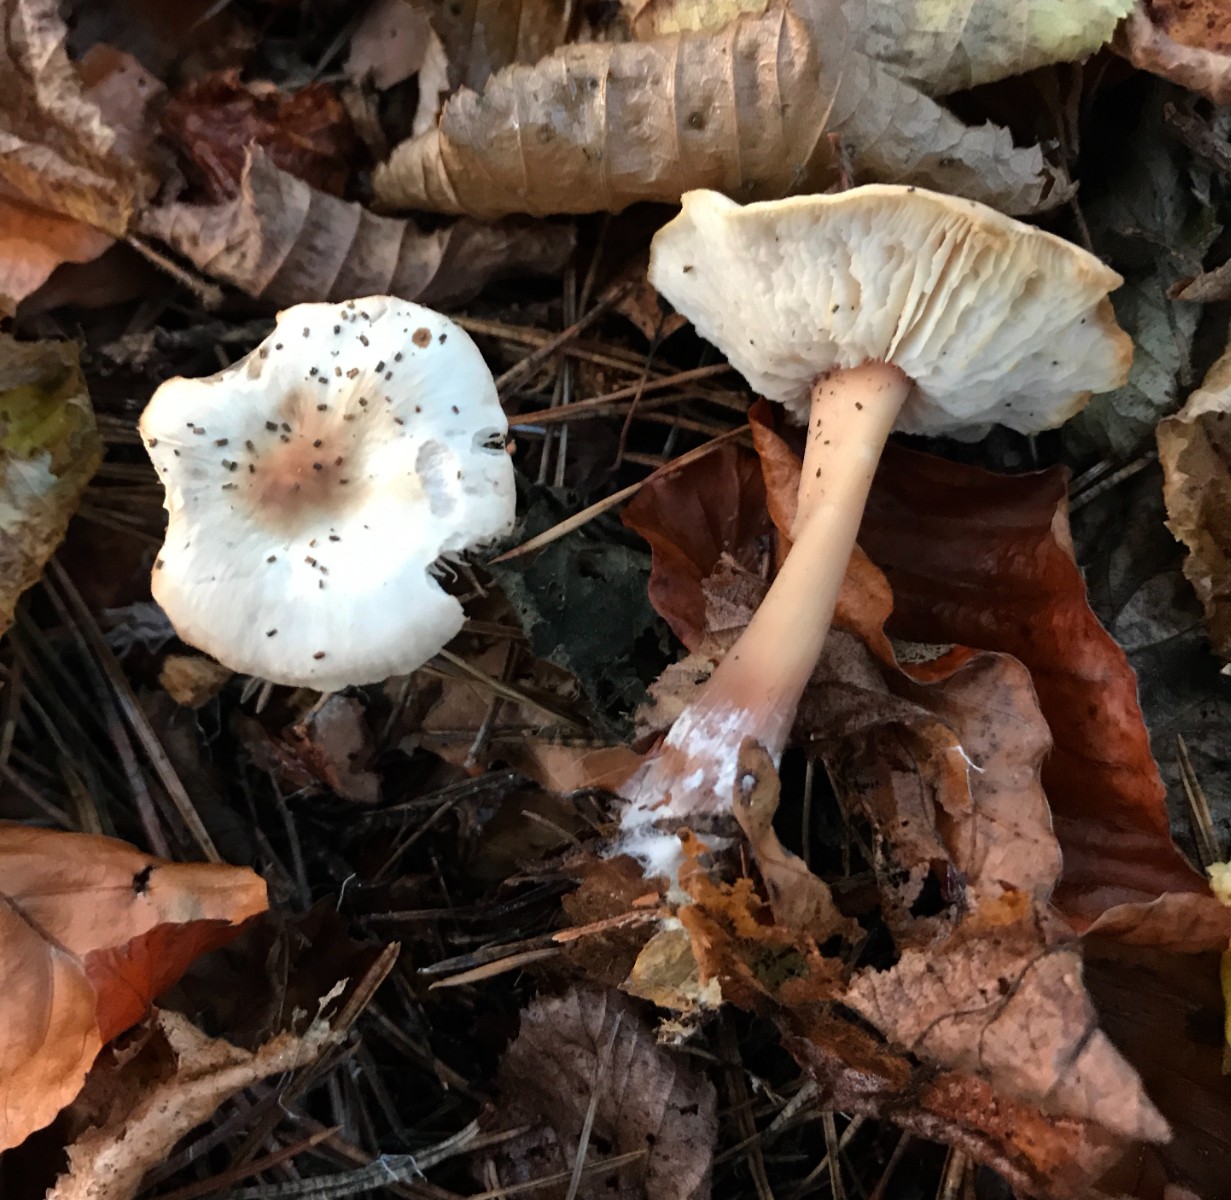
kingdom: Fungi
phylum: Basidiomycota
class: Agaricomycetes
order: Agaricales
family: Omphalotaceae
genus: Rhodocollybia
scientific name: Rhodocollybia asema
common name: horngrå fladhat
